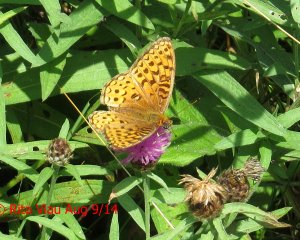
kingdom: Animalia
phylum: Arthropoda
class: Insecta
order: Lepidoptera
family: Nymphalidae
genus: Speyeria
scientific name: Speyeria atlantis
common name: Atlantis Fritillary
